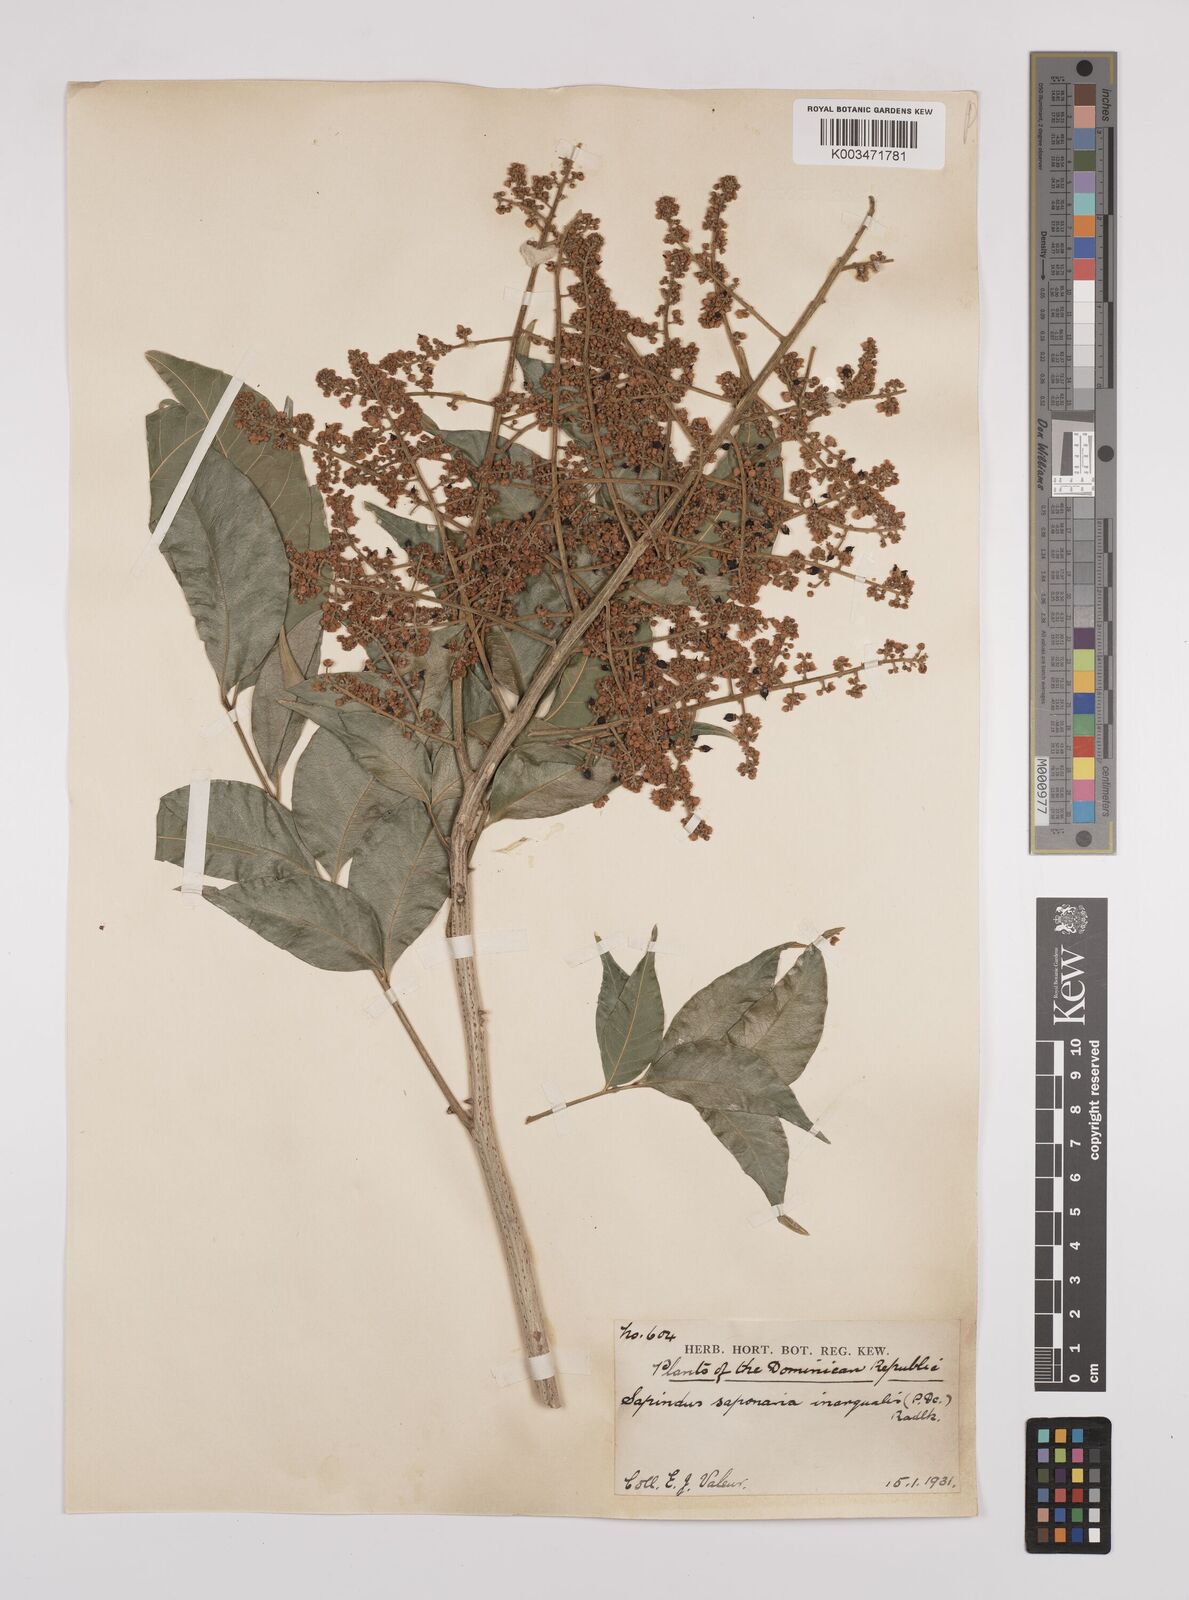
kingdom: Plantae
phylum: Tracheophyta
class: Magnoliopsida
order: Sapindales
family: Sapindaceae
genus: Sapindus
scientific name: Sapindus saponaria
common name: Wingleaf soapberry
